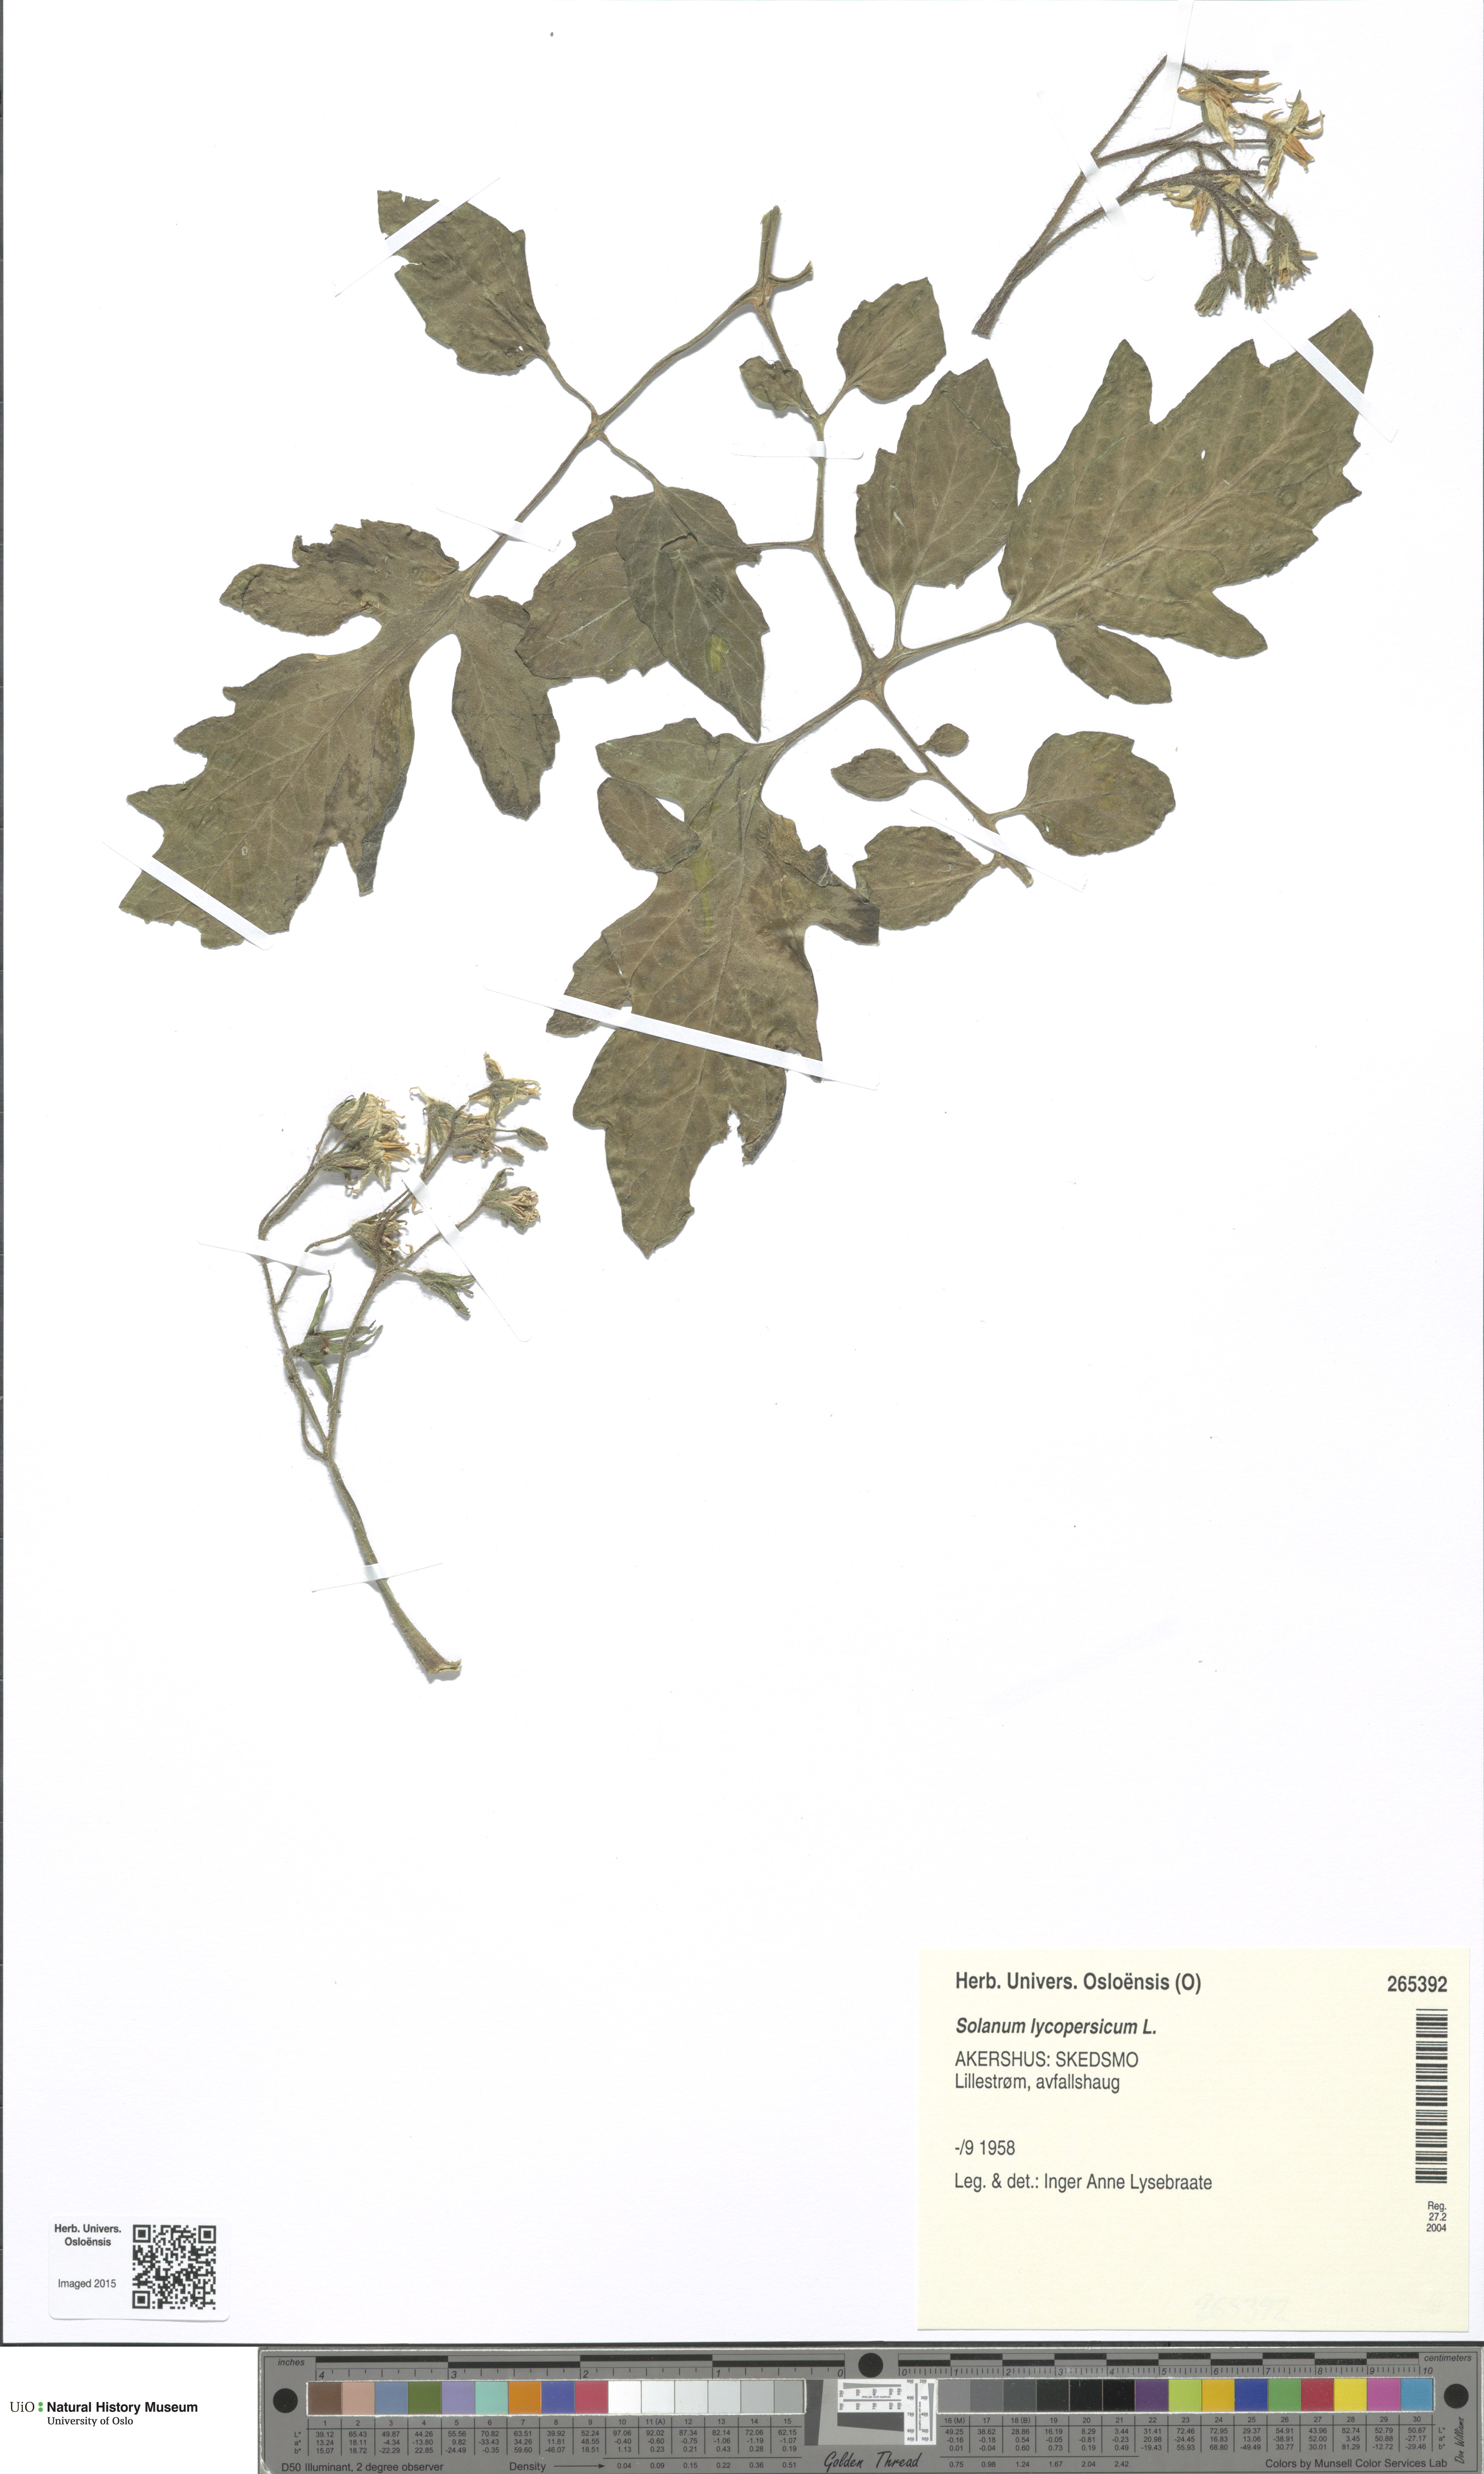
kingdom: Plantae
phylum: Tracheophyta
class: Magnoliopsida
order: Solanales
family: Solanaceae
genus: Solanum
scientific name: Solanum
